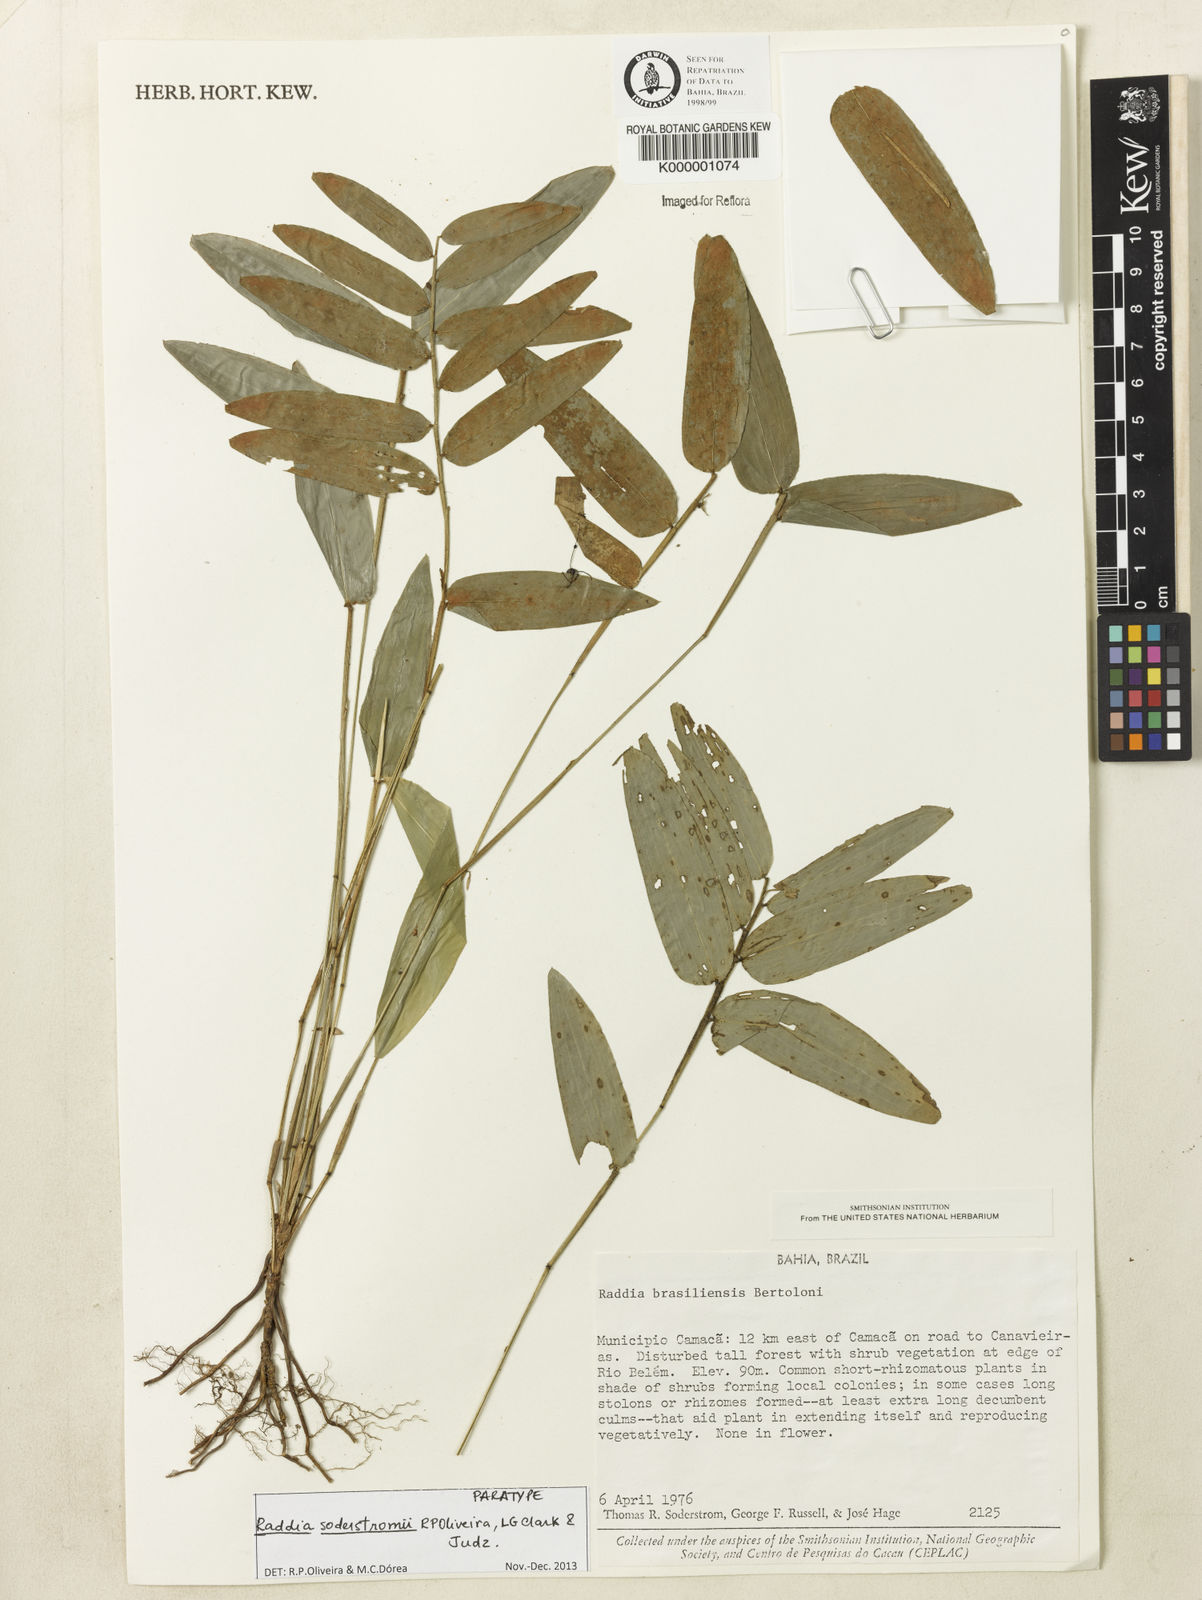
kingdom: Plantae
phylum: Tracheophyta
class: Liliopsida
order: Poales
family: Poaceae
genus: Raddia
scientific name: Raddia brasiliensis
